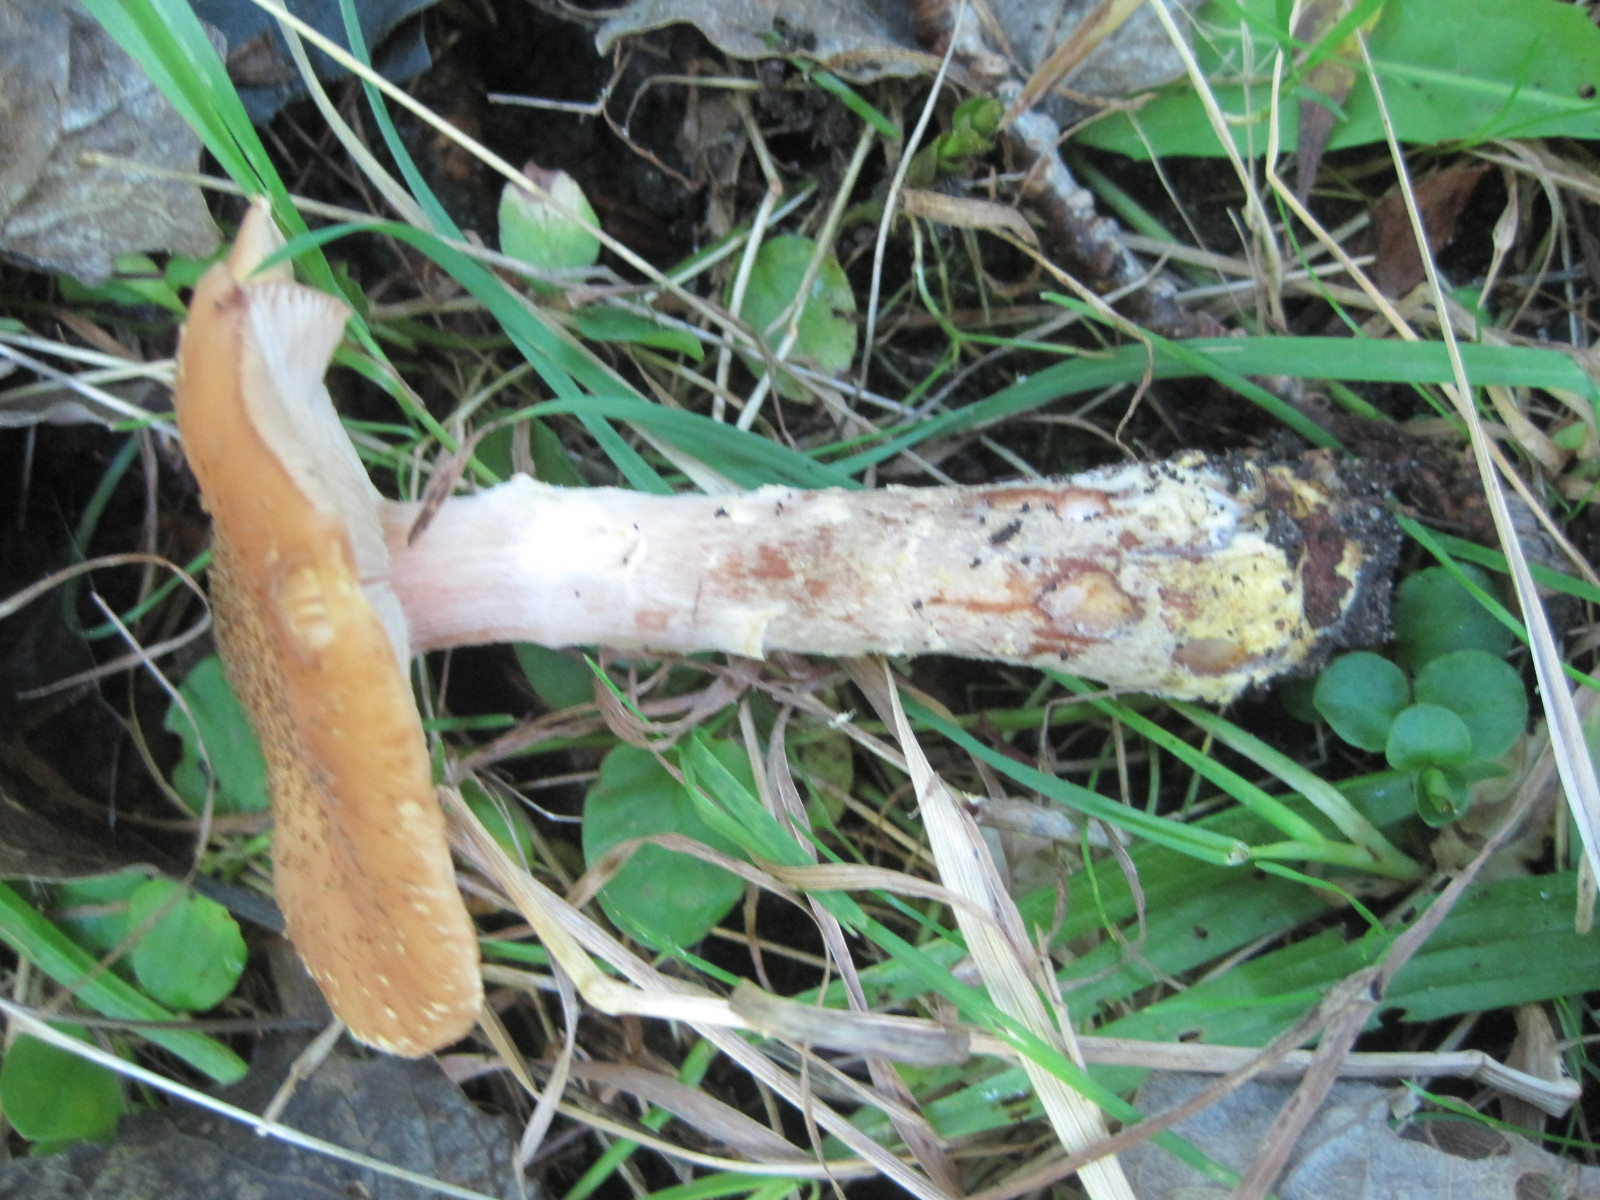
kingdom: Fungi
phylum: Basidiomycota
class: Agaricomycetes
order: Agaricales
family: Physalacriaceae
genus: Armillaria
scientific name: Armillaria lutea
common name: køllestokket honningsvamp
